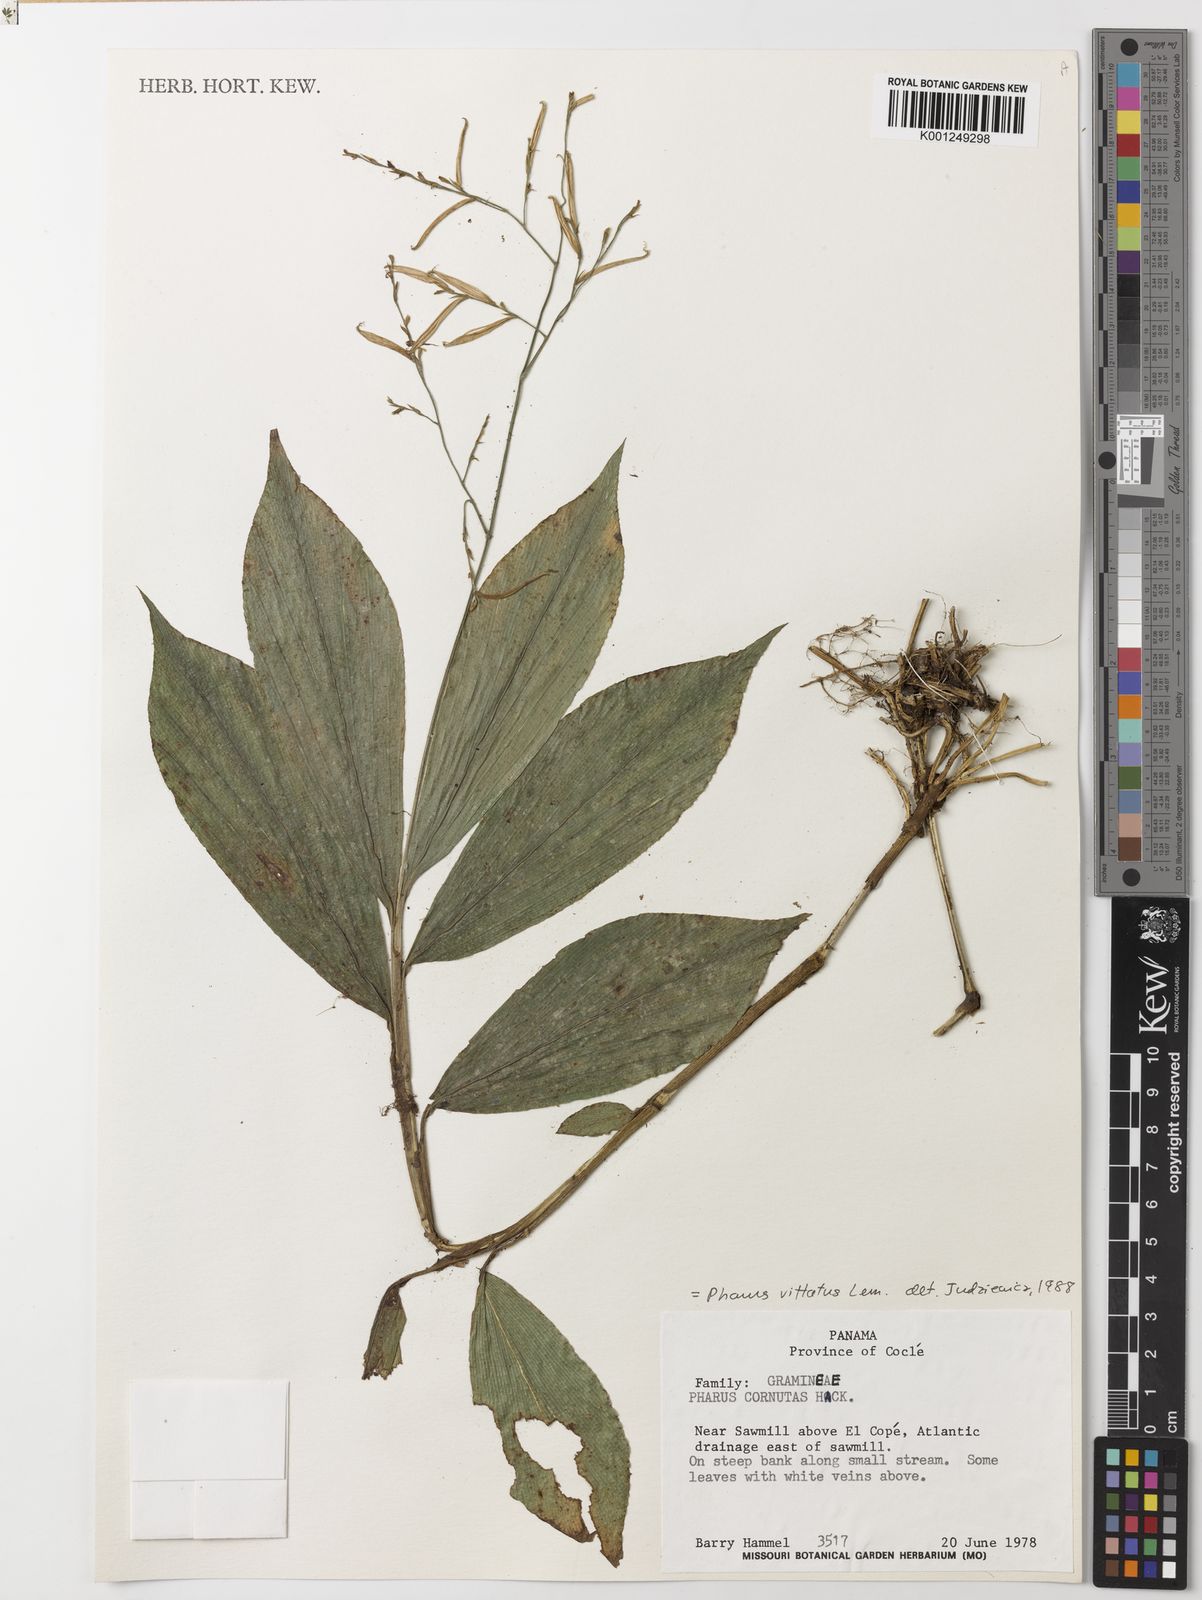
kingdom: Plantae
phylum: Tracheophyta
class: Liliopsida
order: Poales
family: Poaceae
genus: Pharus
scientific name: Pharus vittatus
